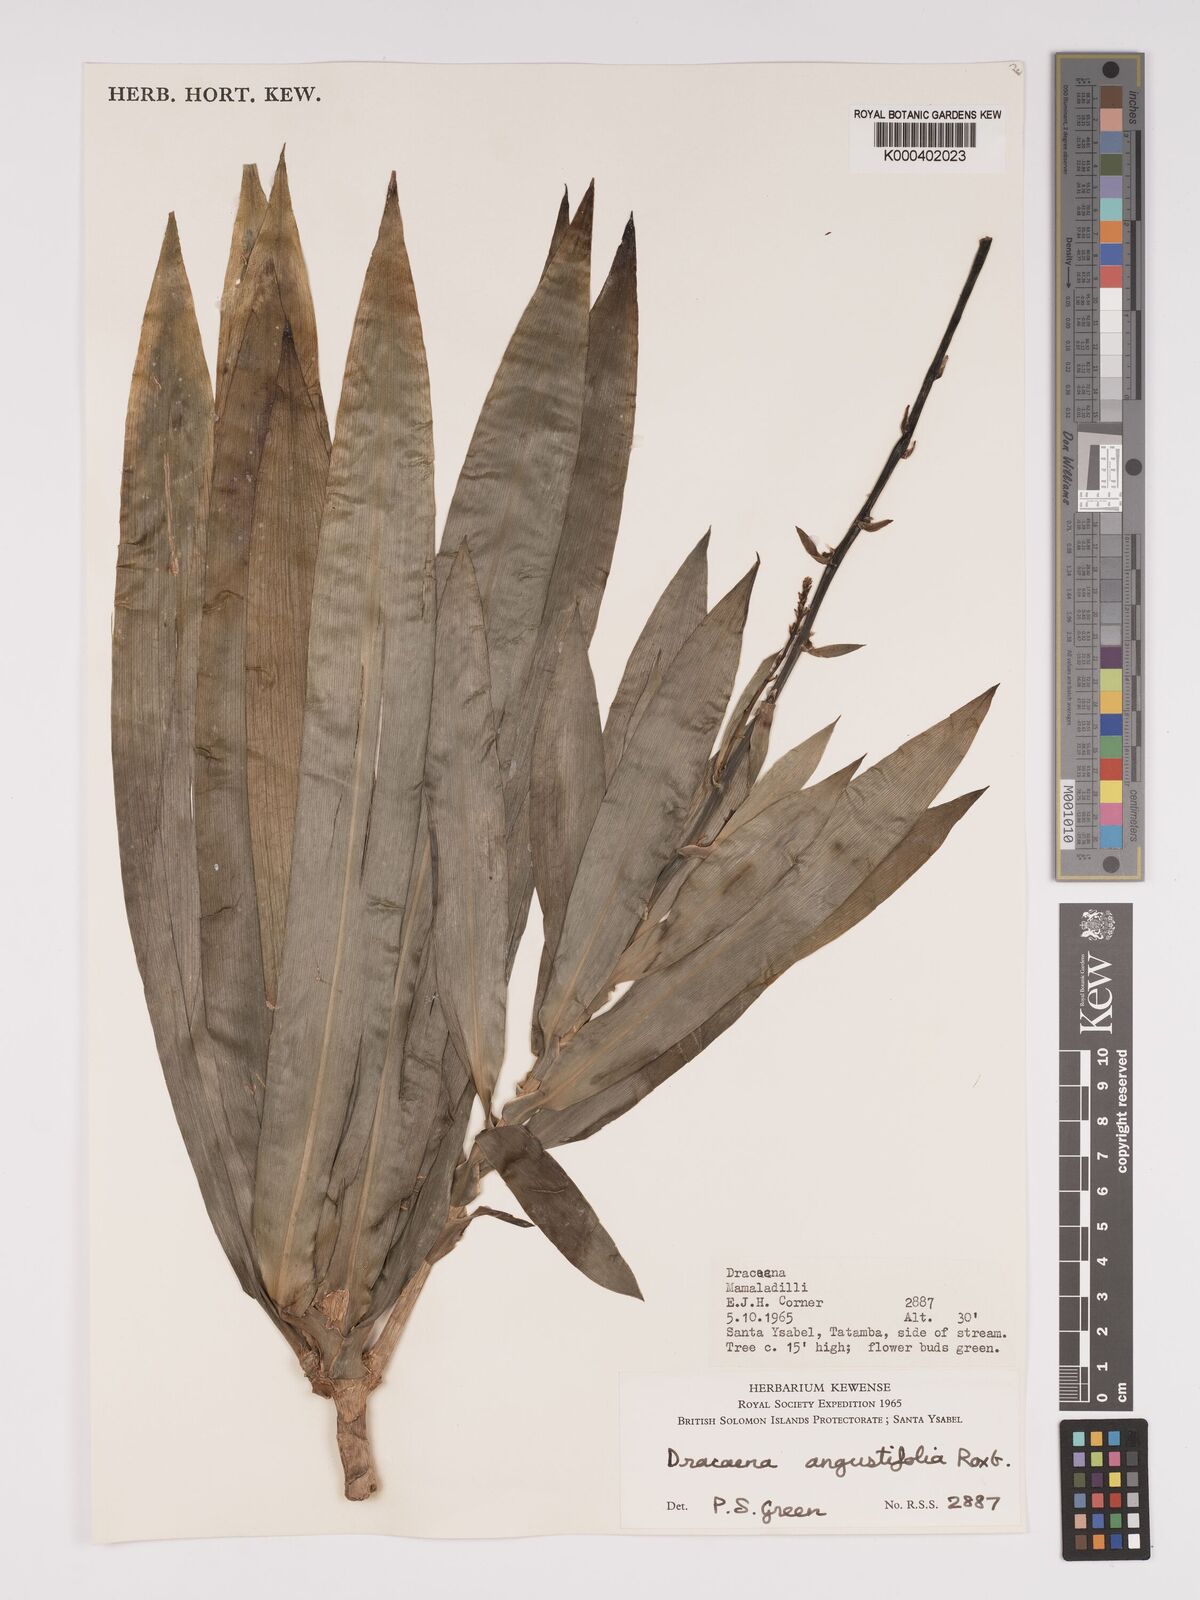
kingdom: Plantae
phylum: Tracheophyta
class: Liliopsida
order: Asparagales
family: Asparagaceae
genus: Dracaena
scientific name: Dracaena angustifolia
